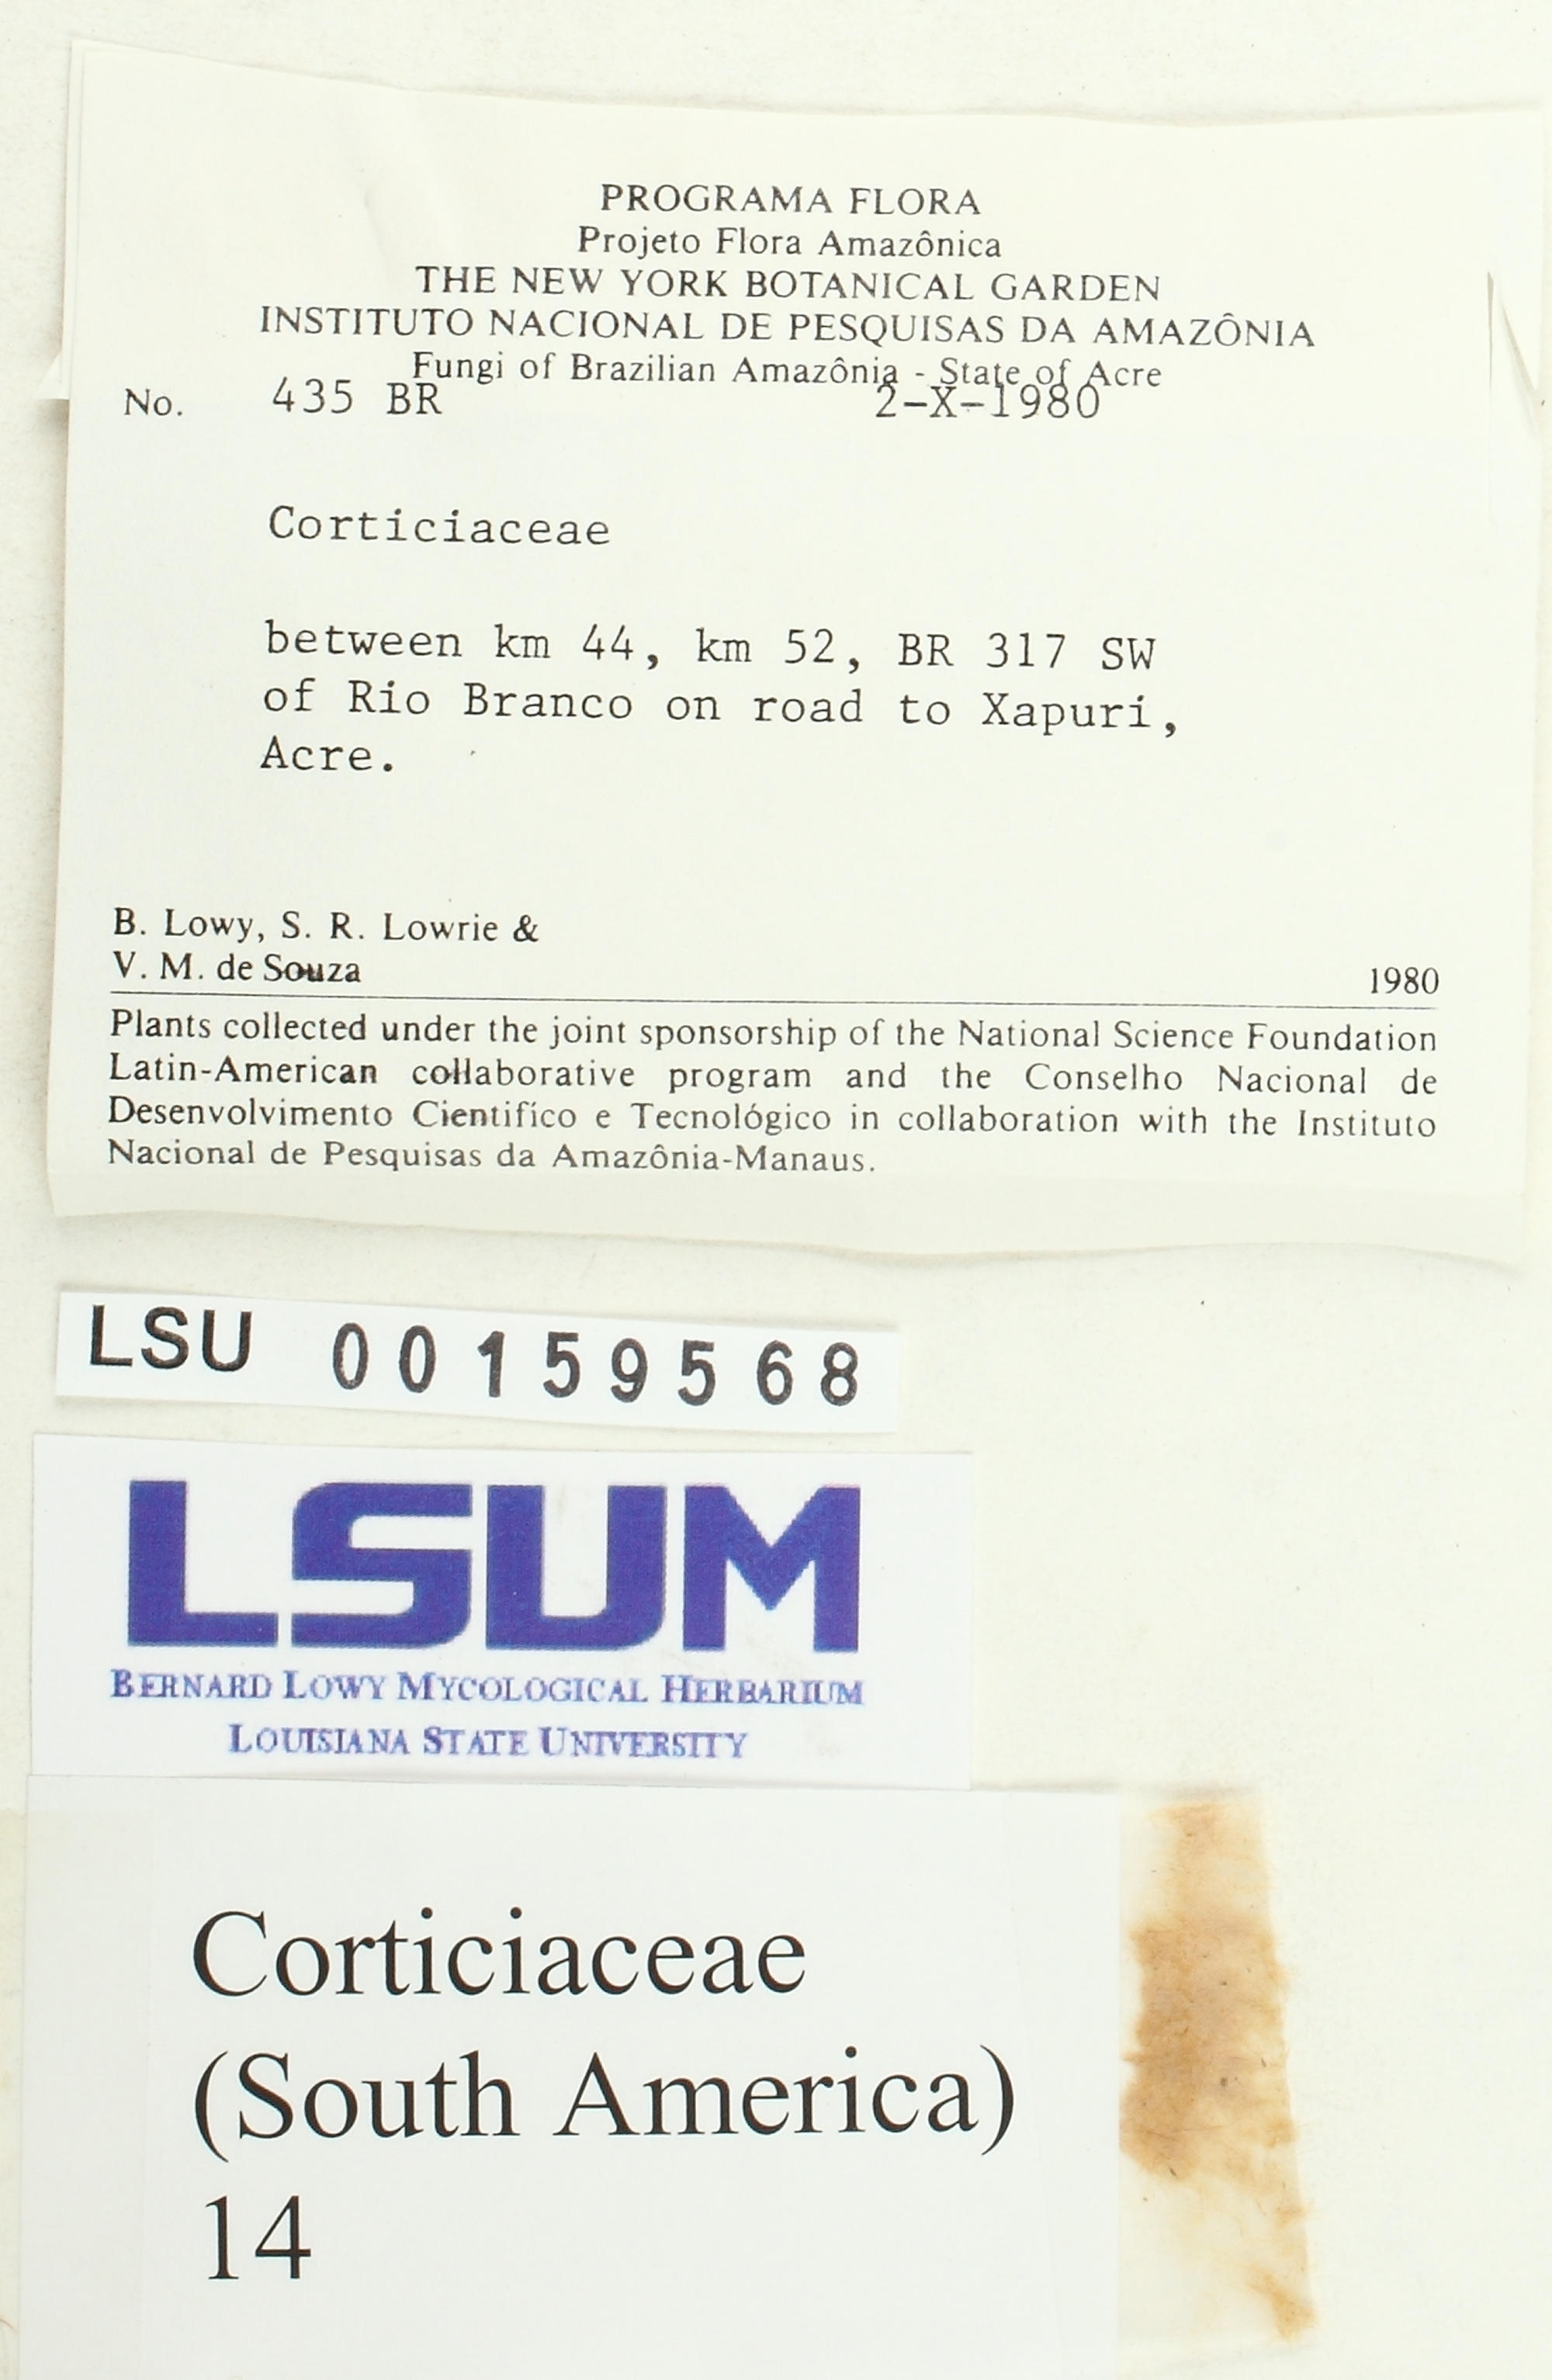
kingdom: Fungi
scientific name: Fungi
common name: Fungi
